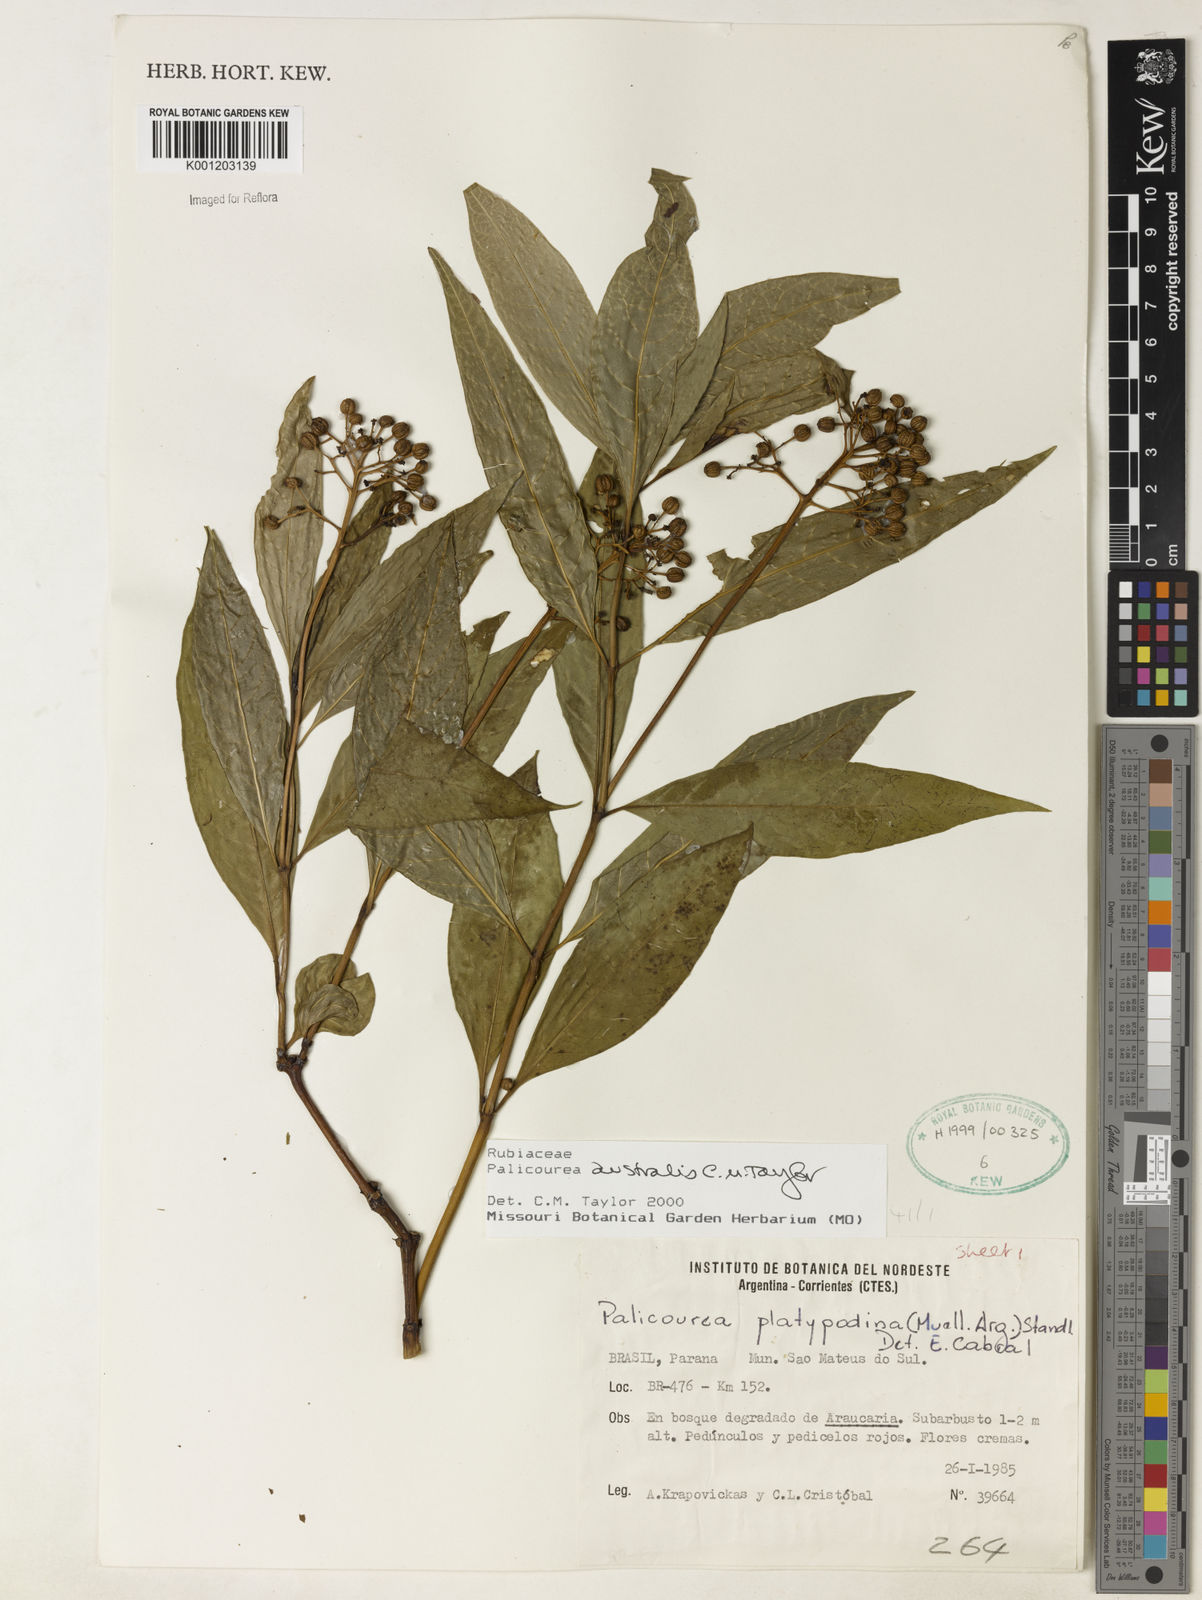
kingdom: Plantae
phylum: Tracheophyta
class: Magnoliopsida
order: Gentianales
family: Rubiaceae
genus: Palicourea
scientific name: Palicourea australis
